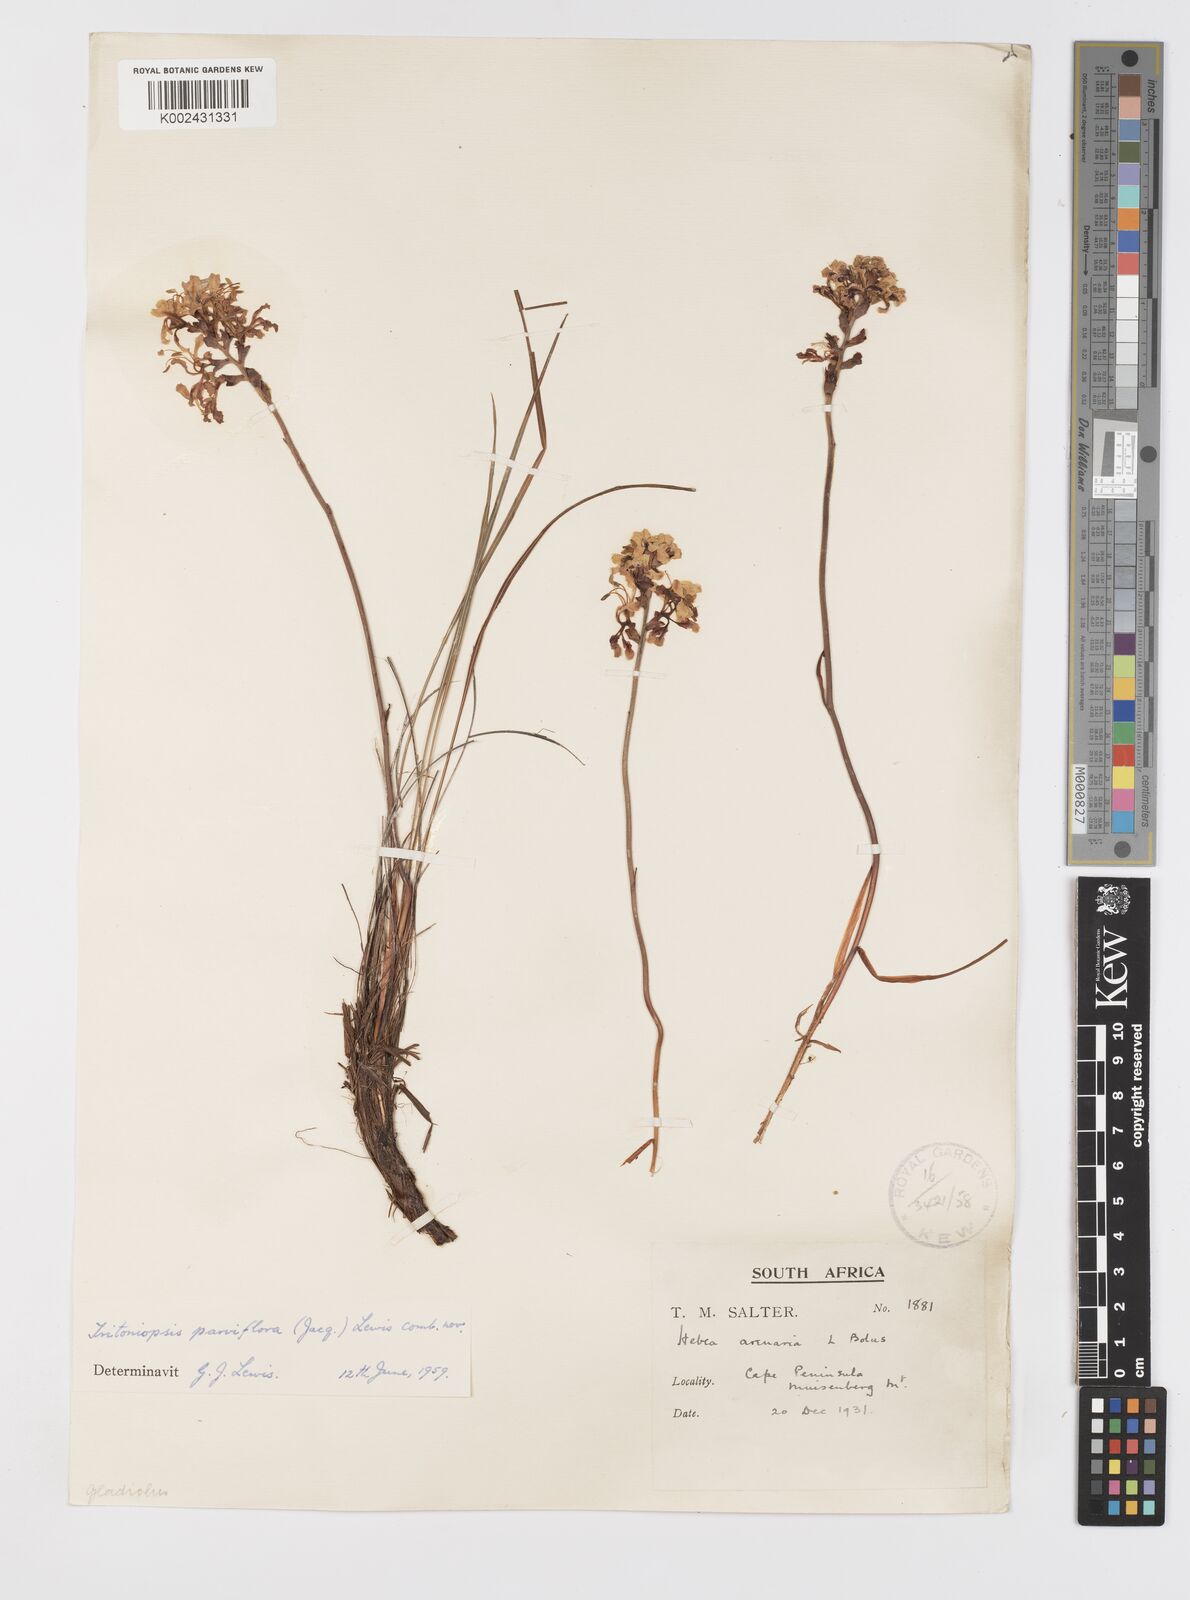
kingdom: Plantae
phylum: Tracheophyta
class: Liliopsida
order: Asparagales
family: Iridaceae
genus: Tritoniopsis
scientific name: Tritoniopsis parviflora
